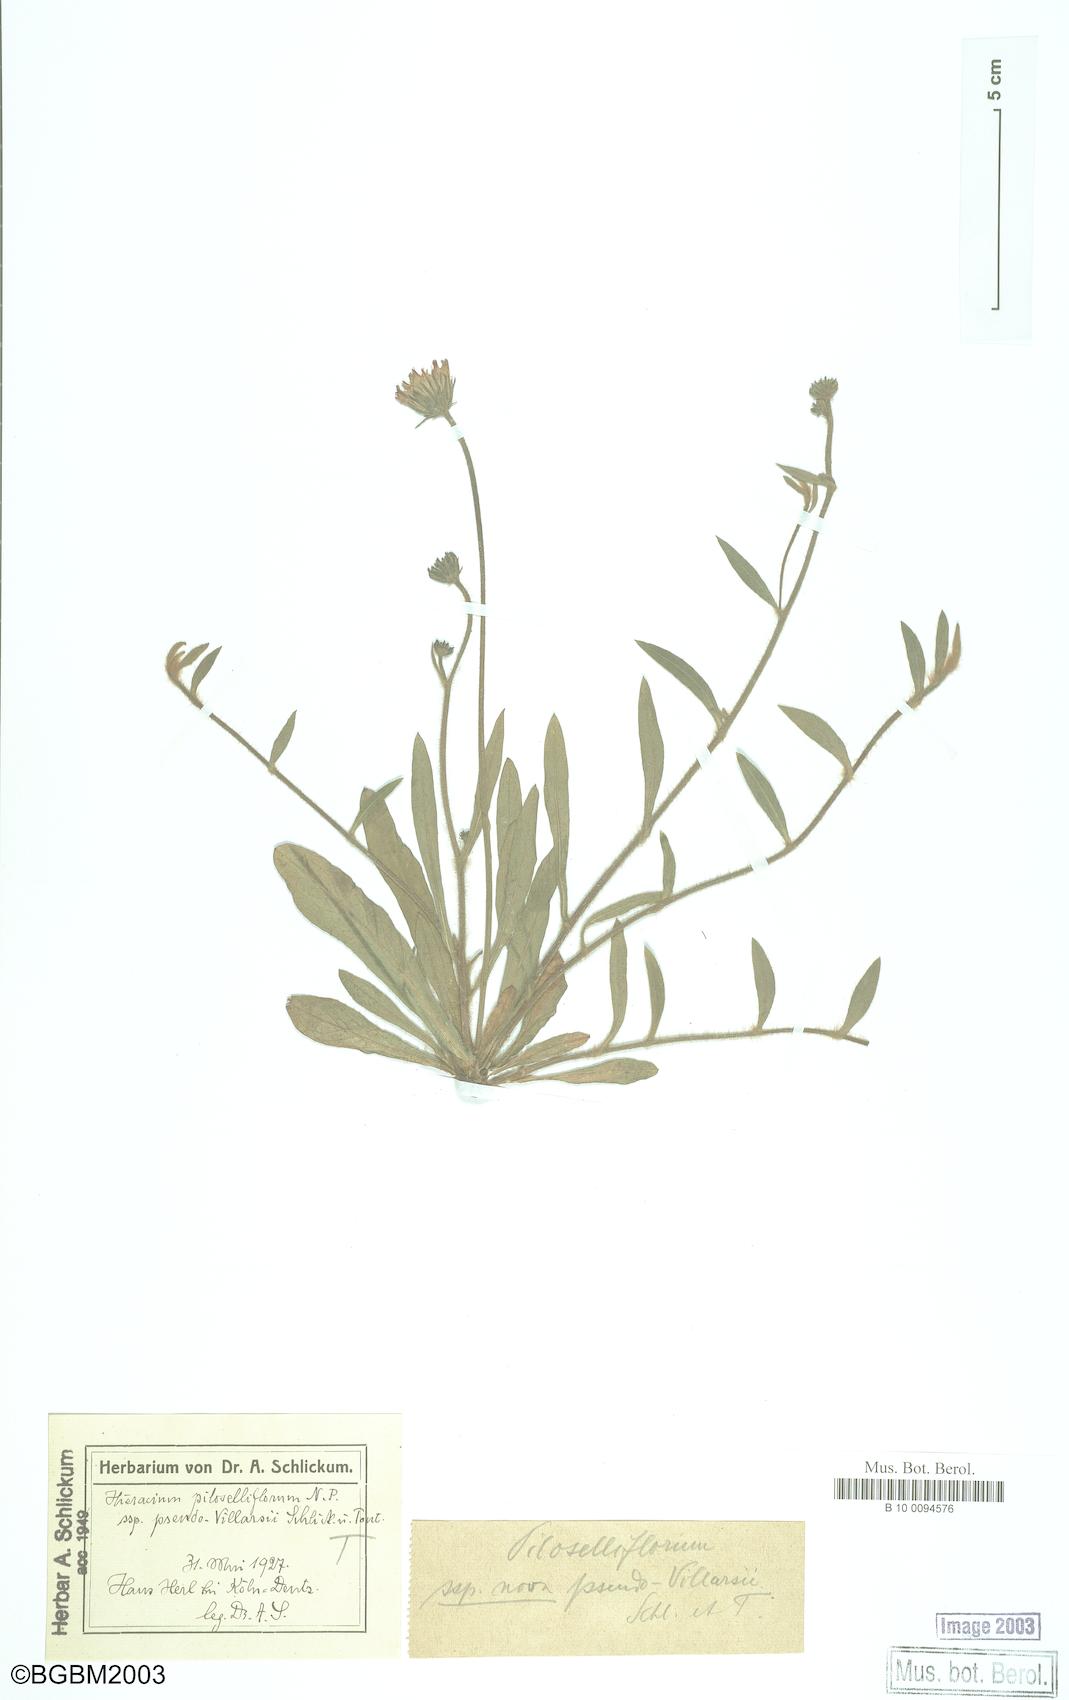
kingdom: Plantae
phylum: Tracheophyta
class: Magnoliopsida
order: Asterales
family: Asteraceae
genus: Pilosella
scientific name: Pilosella piloselliflora
